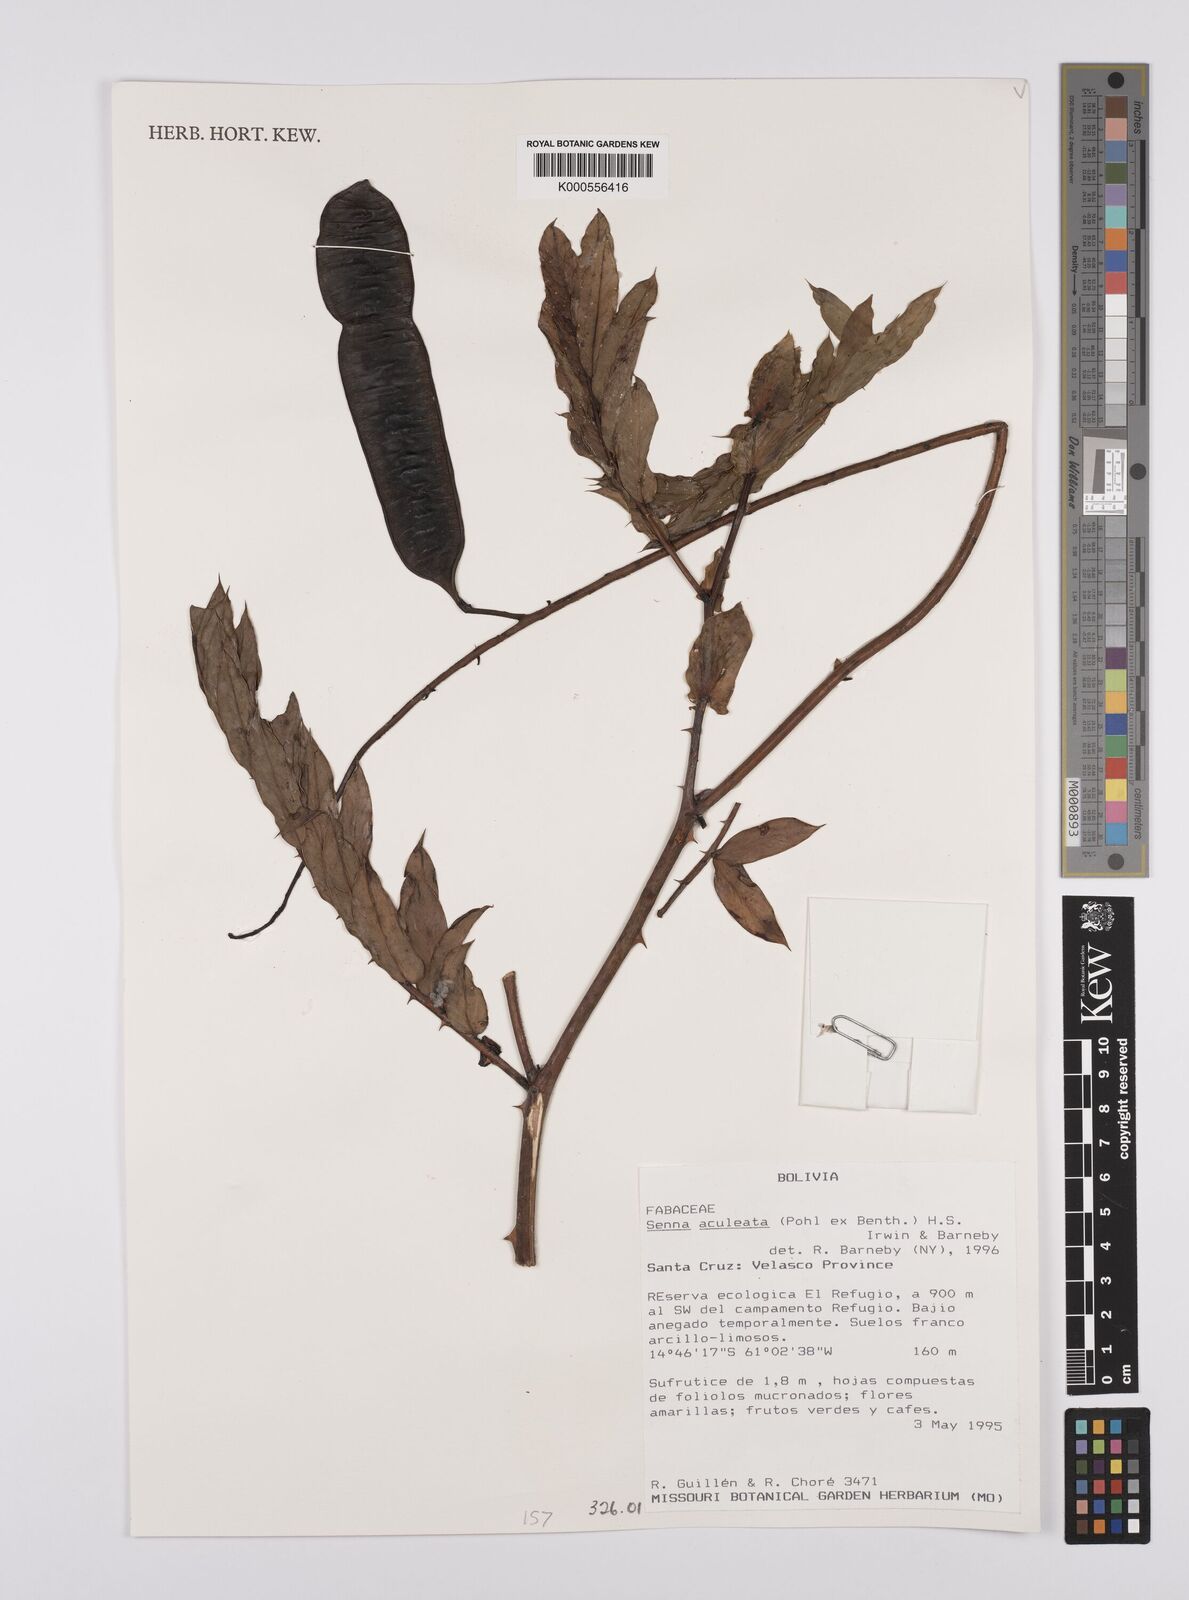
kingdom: Plantae
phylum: Tracheophyta
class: Magnoliopsida
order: Fabales
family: Fabaceae
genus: Senna
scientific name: Senna aculeata
